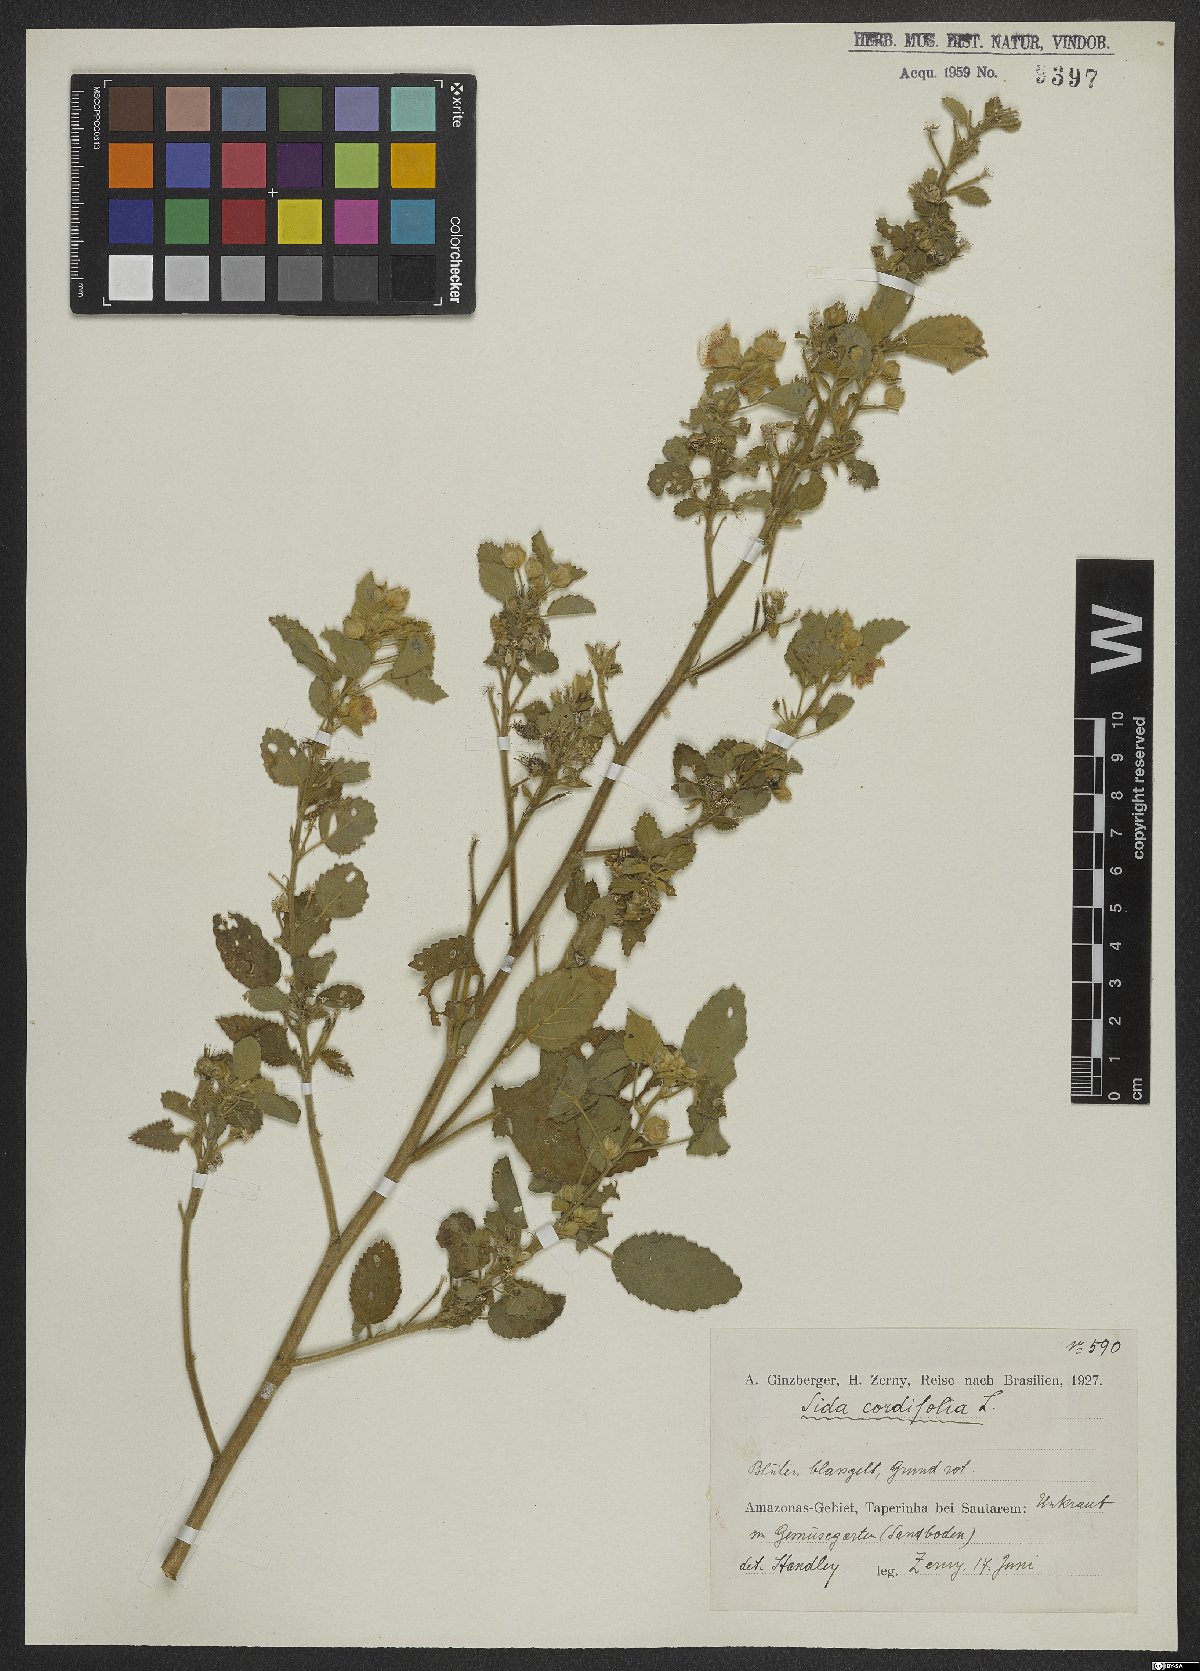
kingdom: Plantae
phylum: Tracheophyta
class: Magnoliopsida
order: Malvales
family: Malvaceae
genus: Sida
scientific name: Sida cordifolia
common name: Ilima
